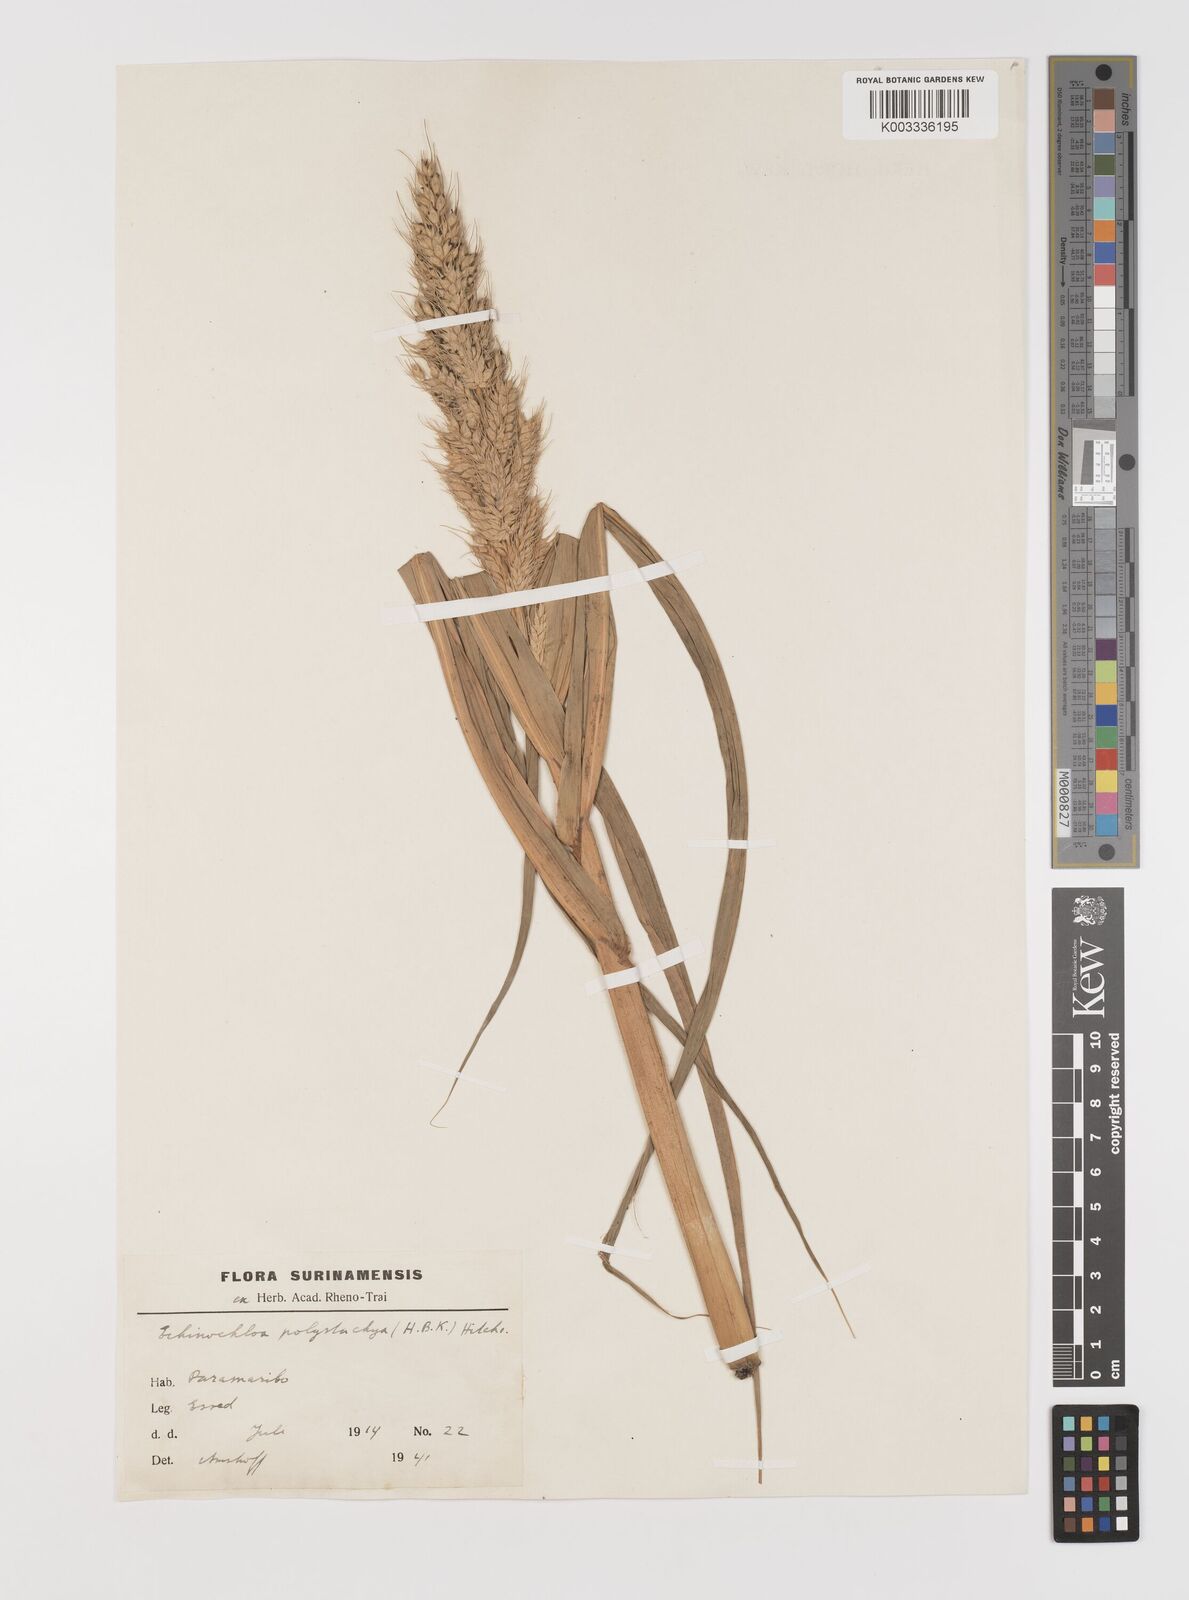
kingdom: Plantae
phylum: Tracheophyta
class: Liliopsida
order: Poales
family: Poaceae
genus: Echinochloa
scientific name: Echinochloa polystachya
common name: Creeping river grass
